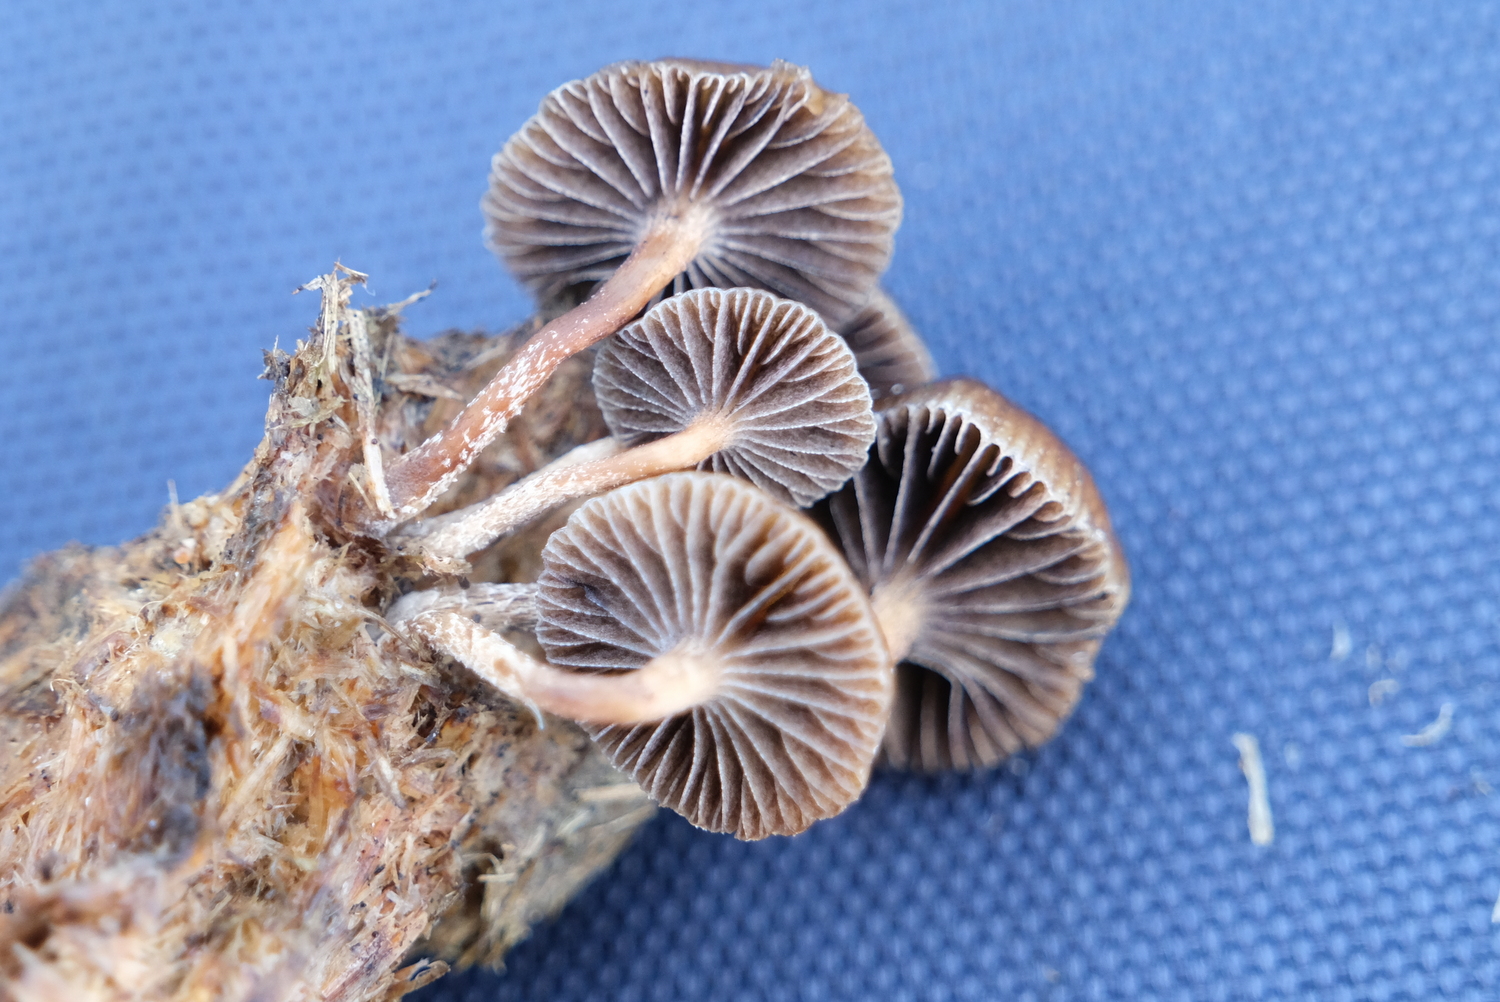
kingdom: Fungi
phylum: Basidiomycota
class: Agaricomycetes
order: Agaricales
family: Strophariaceae
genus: Deconica
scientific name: Deconica
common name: stråhat
